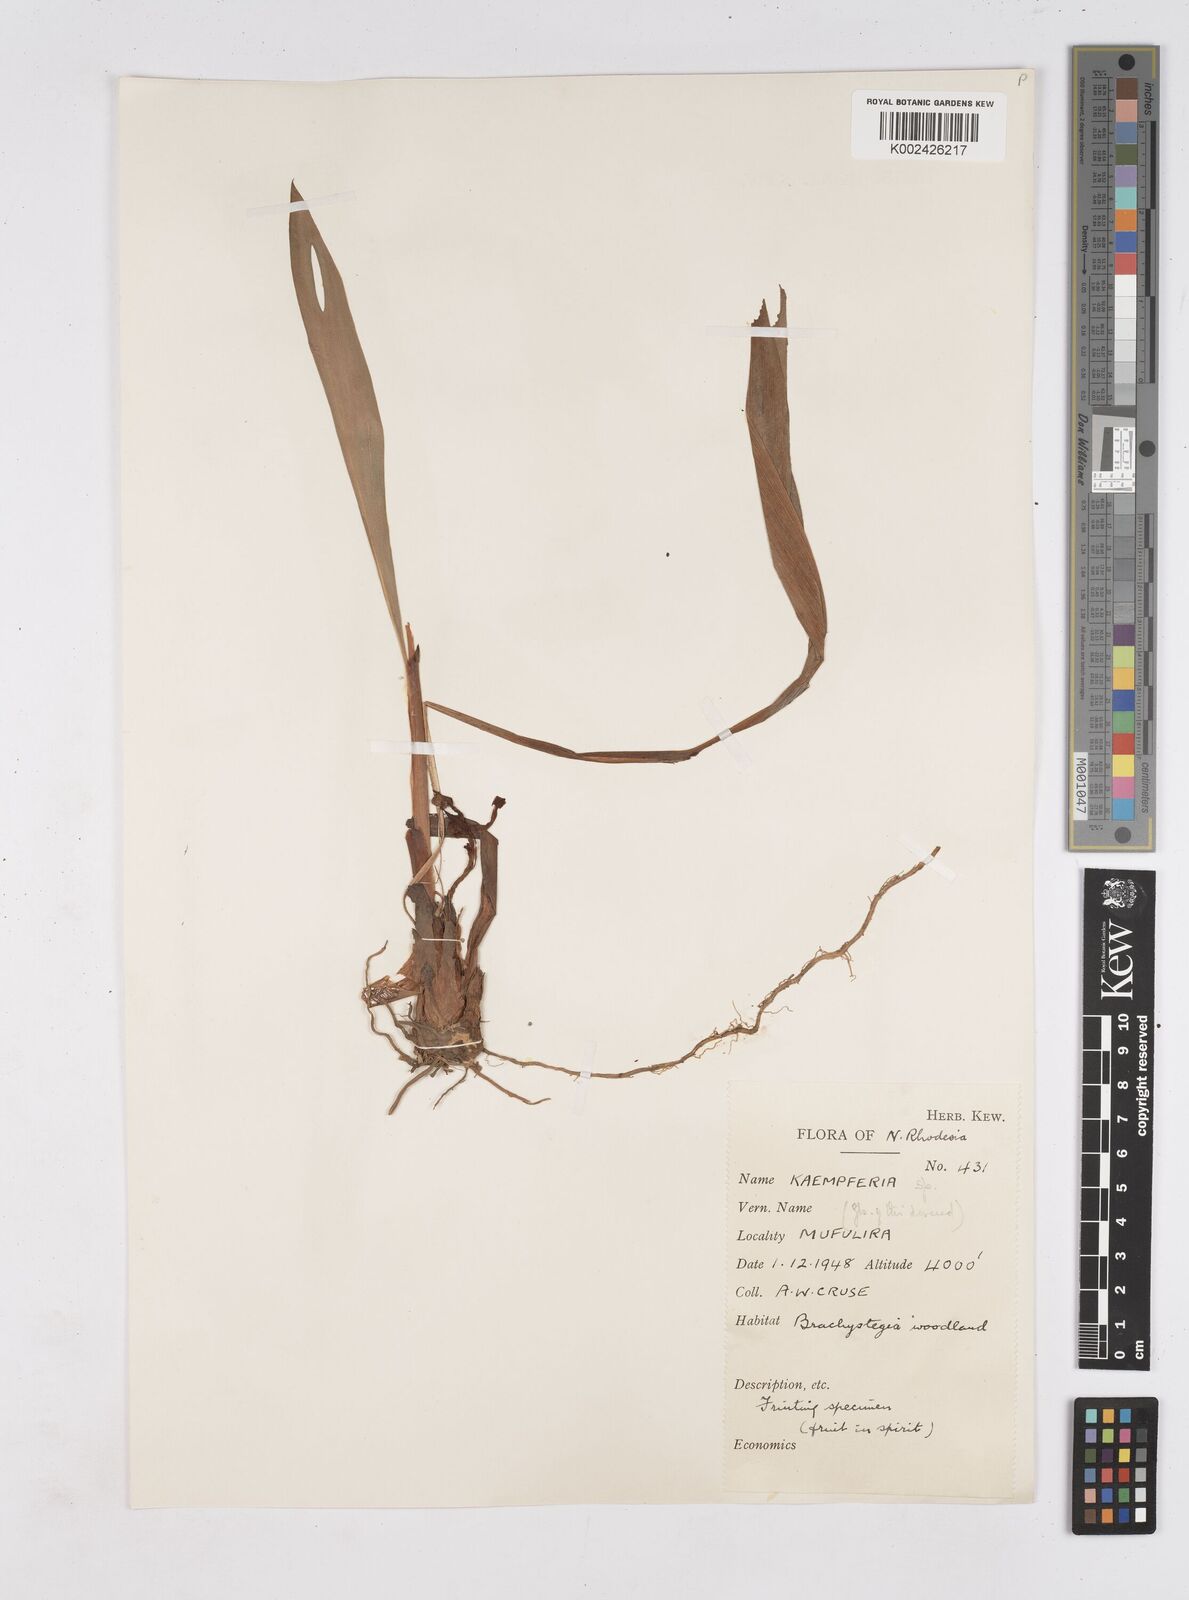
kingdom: Plantae
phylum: Tracheophyta
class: Liliopsida
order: Zingiberales
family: Zingiberaceae
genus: Siphonochilus
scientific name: Siphonochilus
